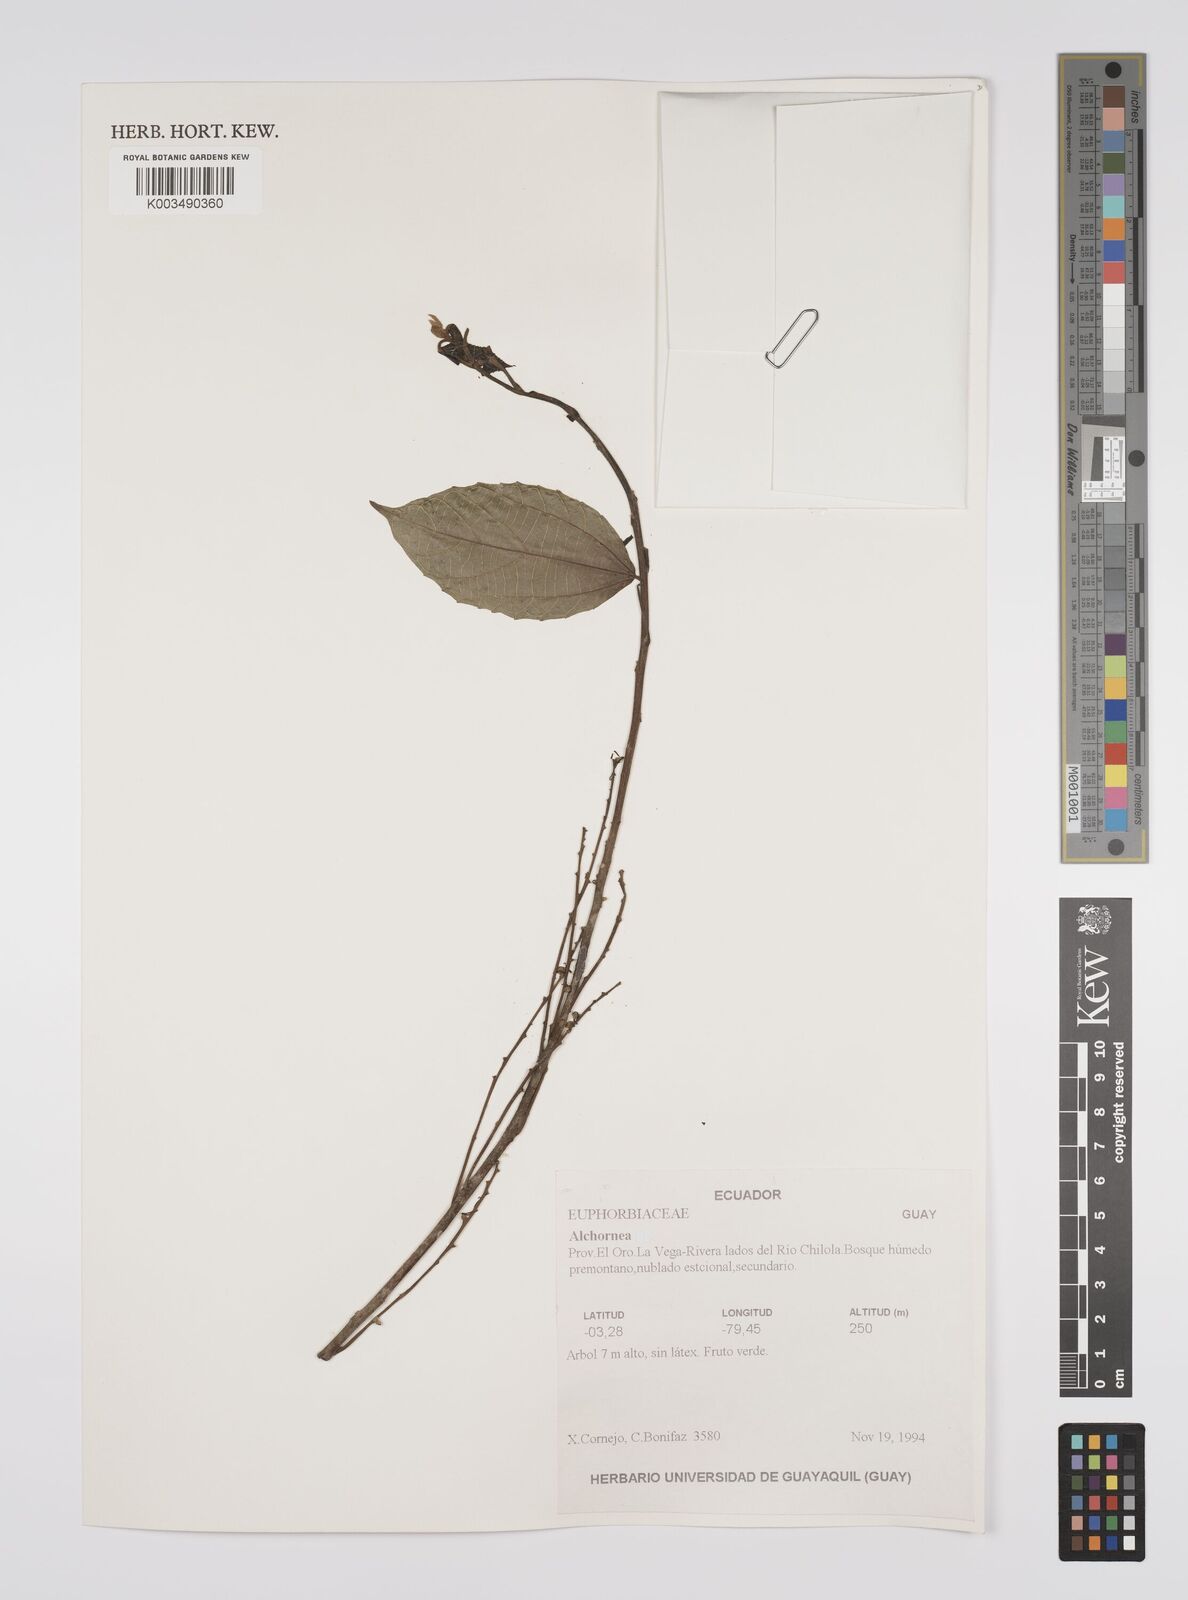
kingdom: Plantae
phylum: Tracheophyta
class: Magnoliopsida
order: Malpighiales
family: Euphorbiaceae
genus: Alchornea
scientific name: Alchornea
